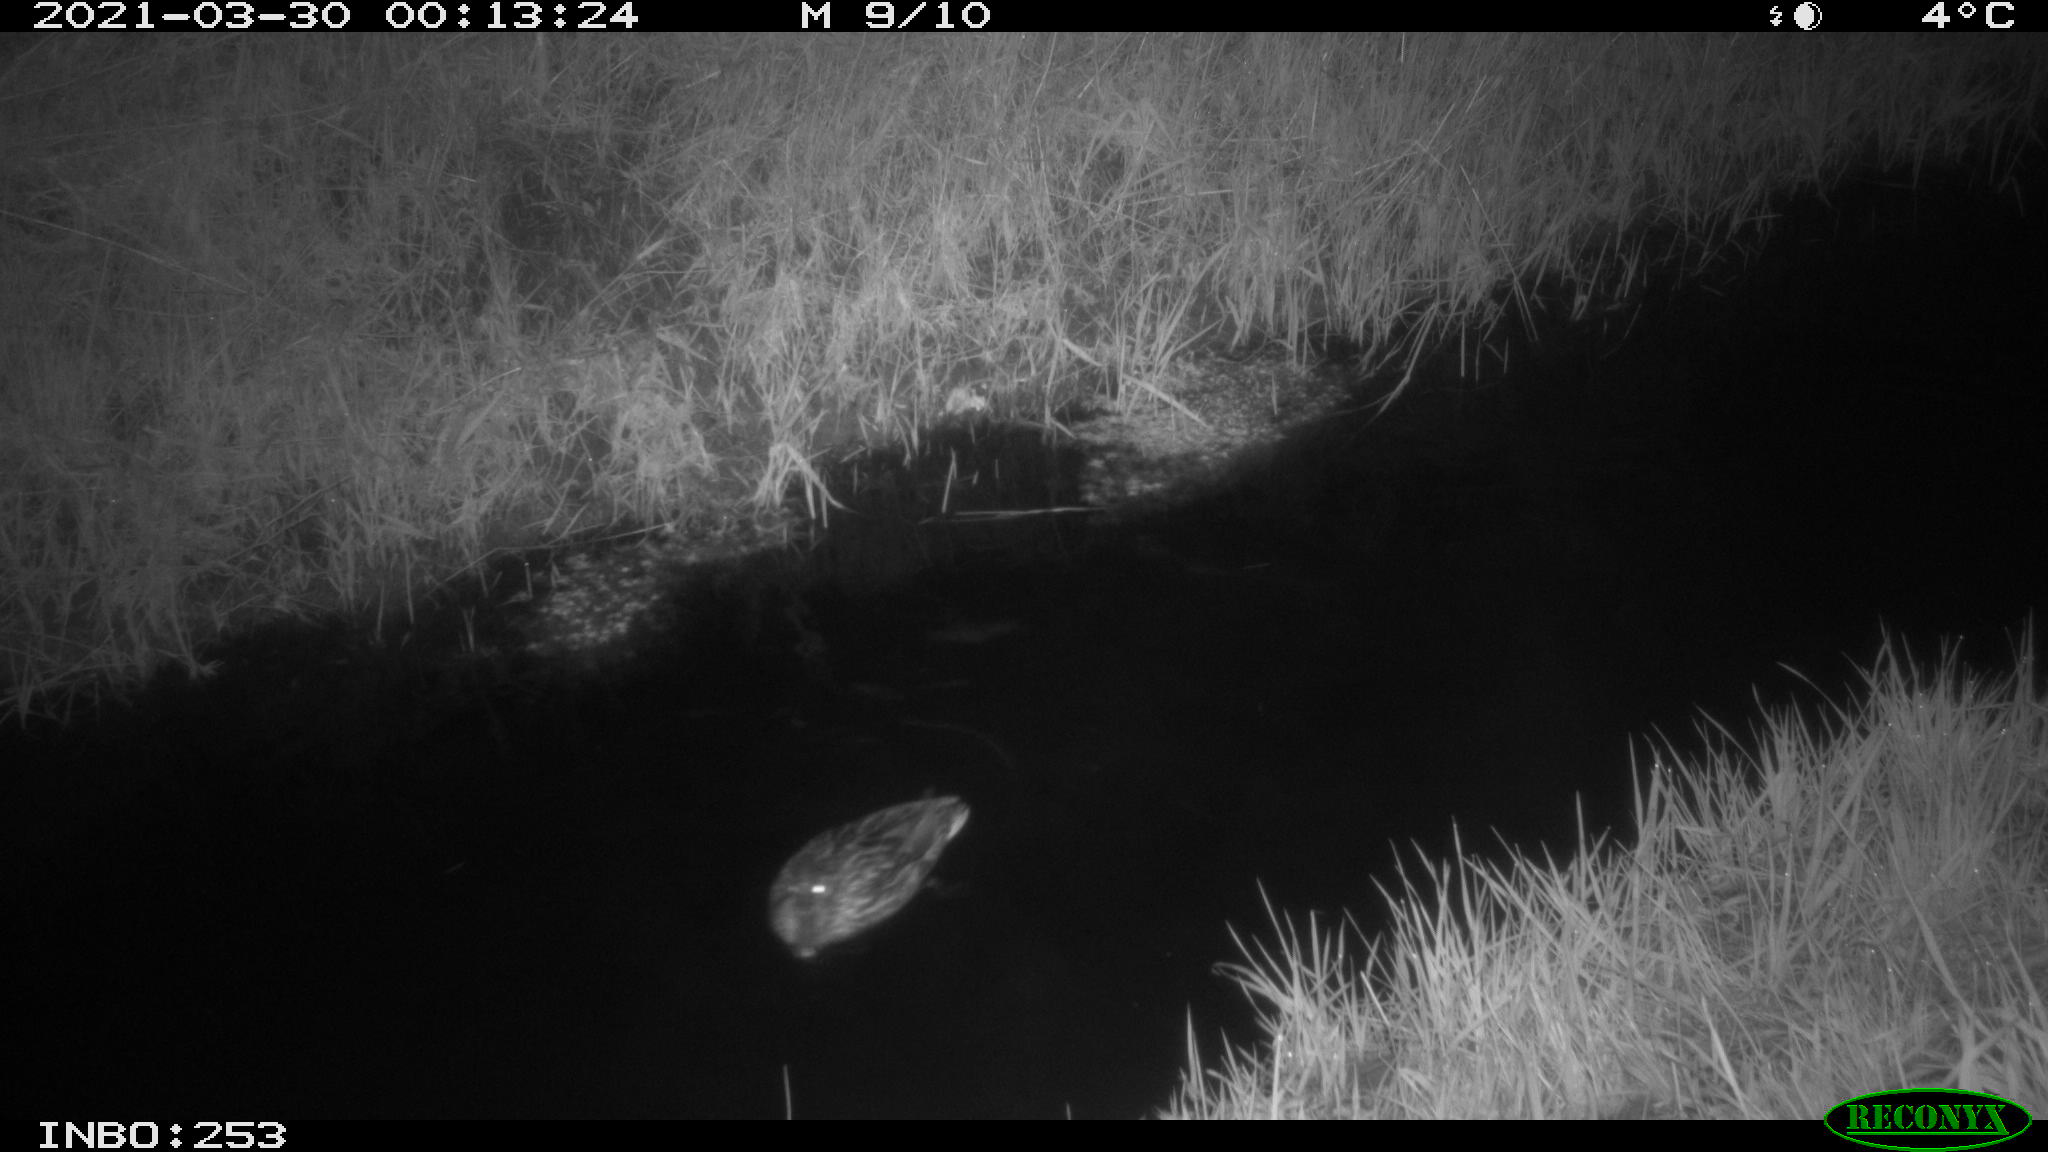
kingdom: Animalia
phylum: Chordata
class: Aves
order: Anseriformes
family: Anatidae
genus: Anas
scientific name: Anas platyrhynchos
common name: Mallard
